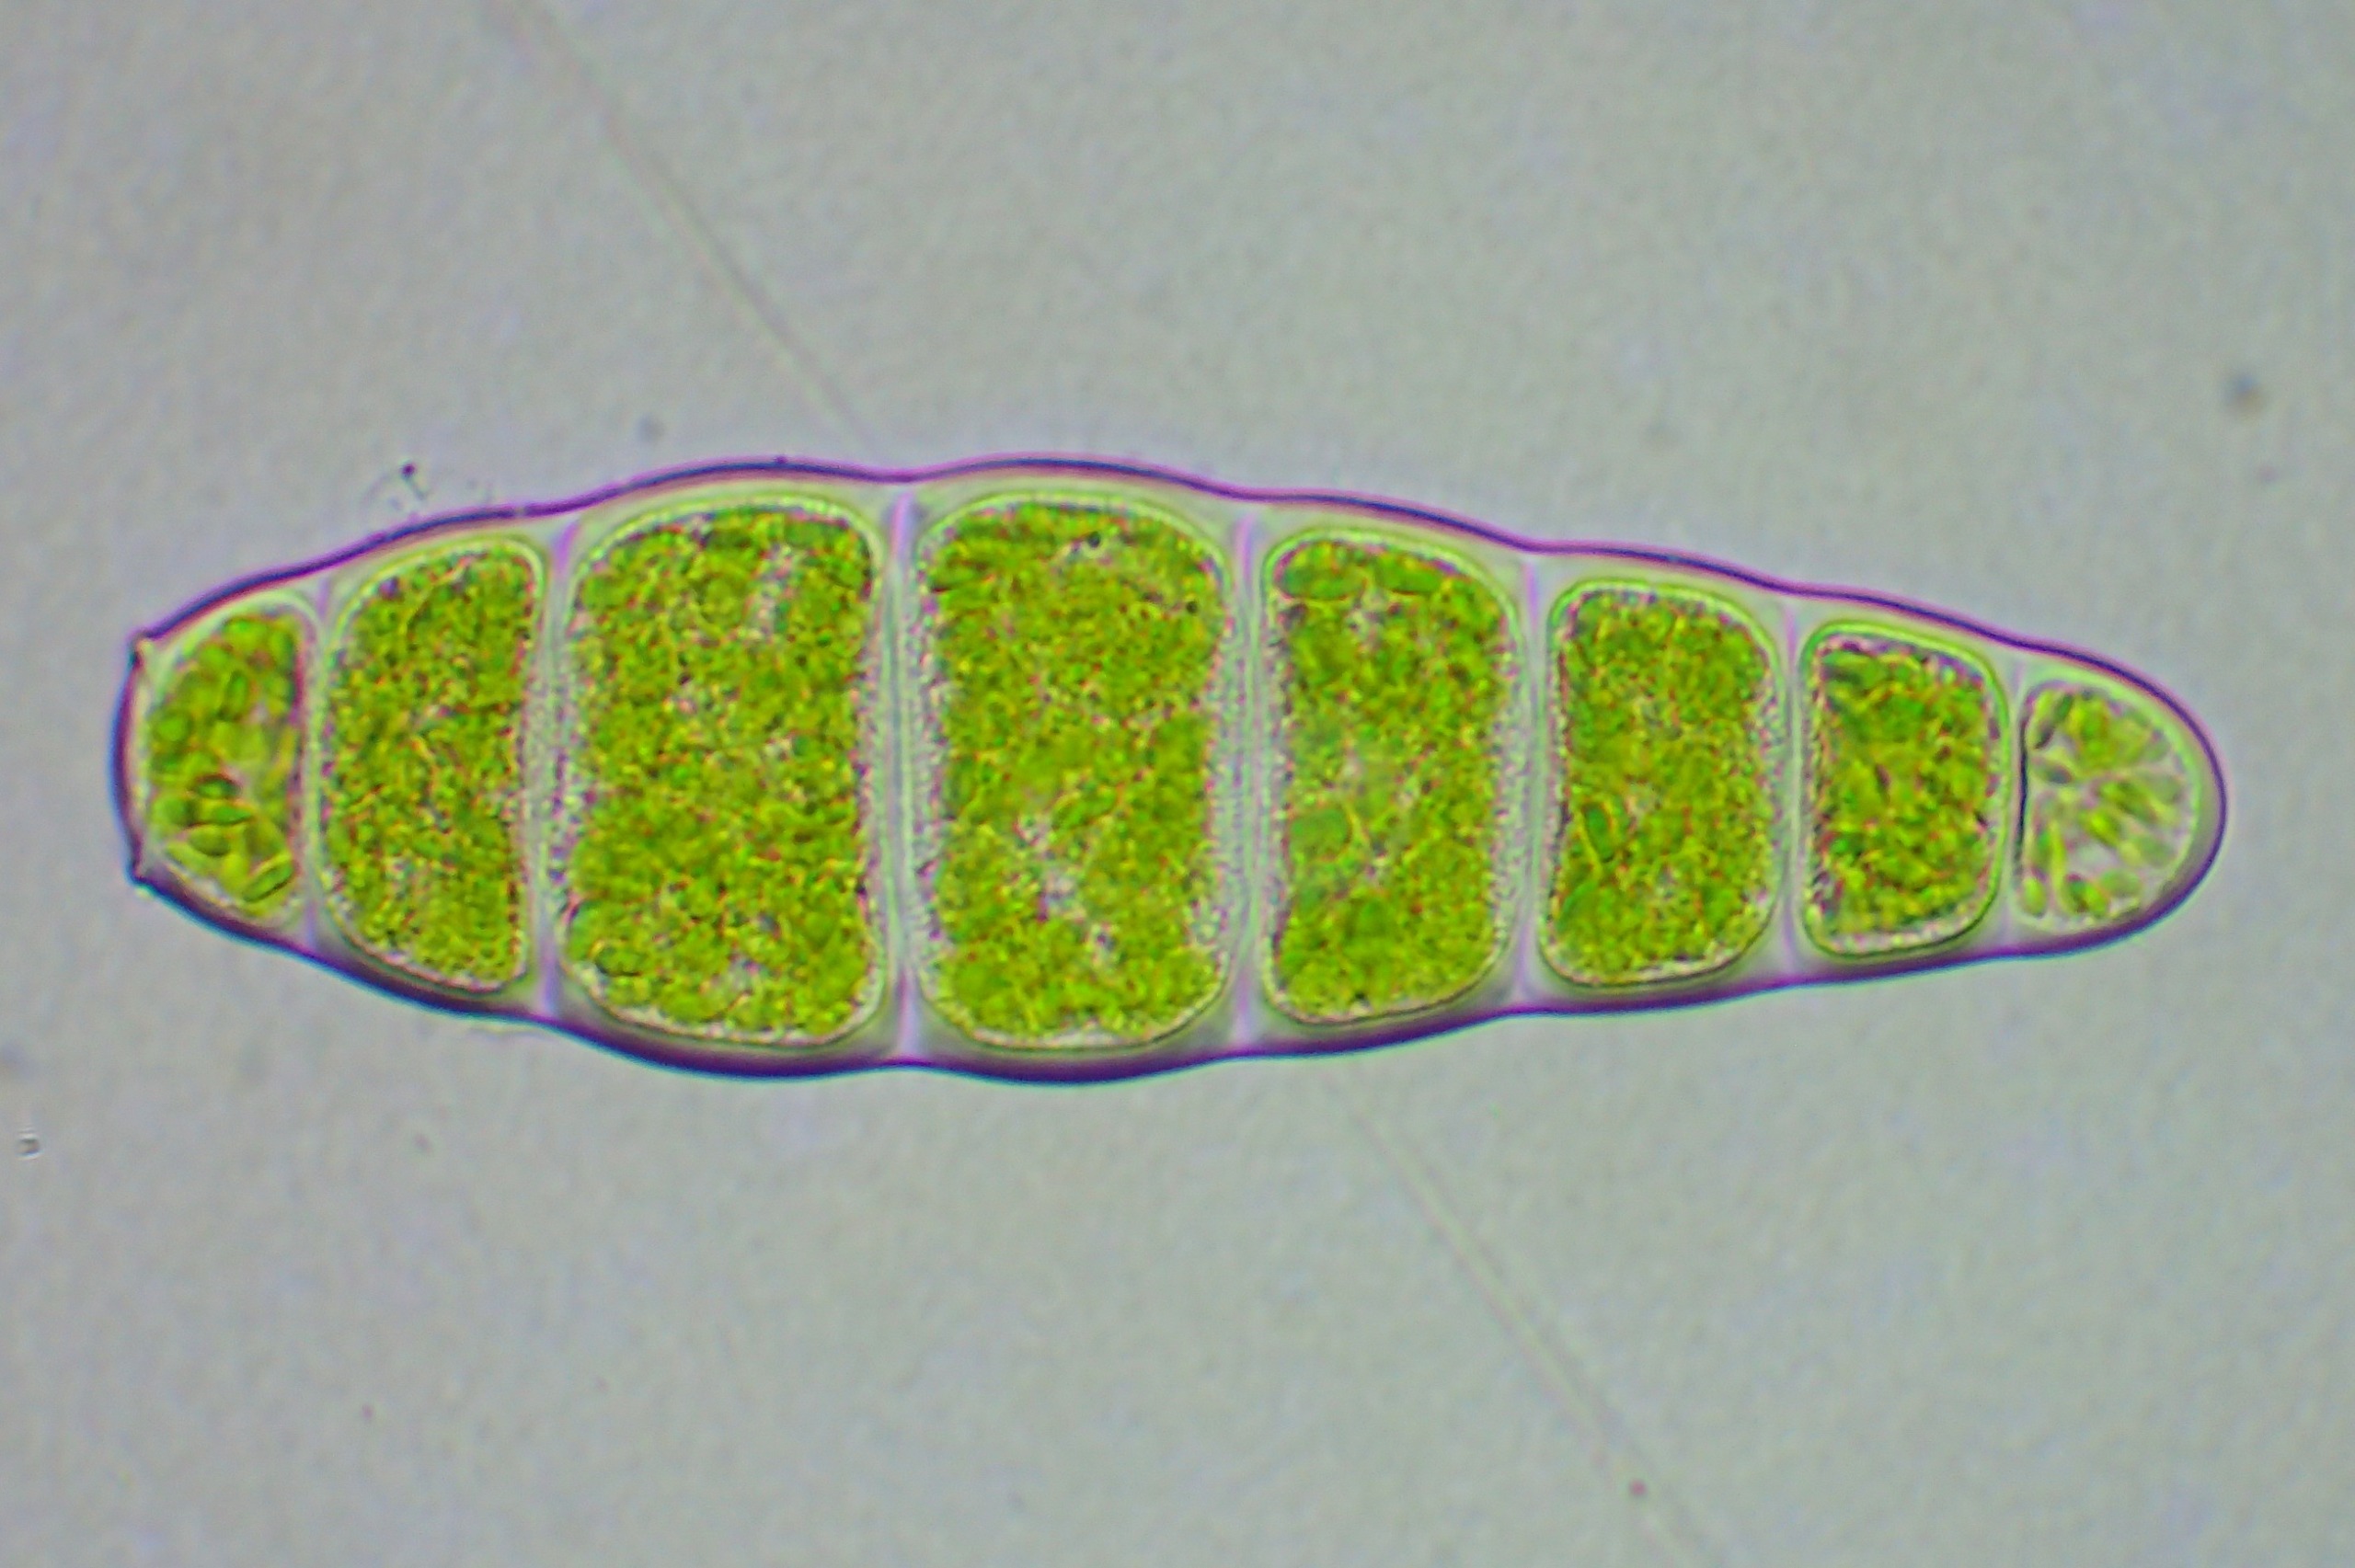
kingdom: Plantae
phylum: Bryophyta
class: Bryopsida
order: Orthotrichales
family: Orthotrichaceae
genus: Zygodon
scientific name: Zygodon conoideus
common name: Tand-køllemos
